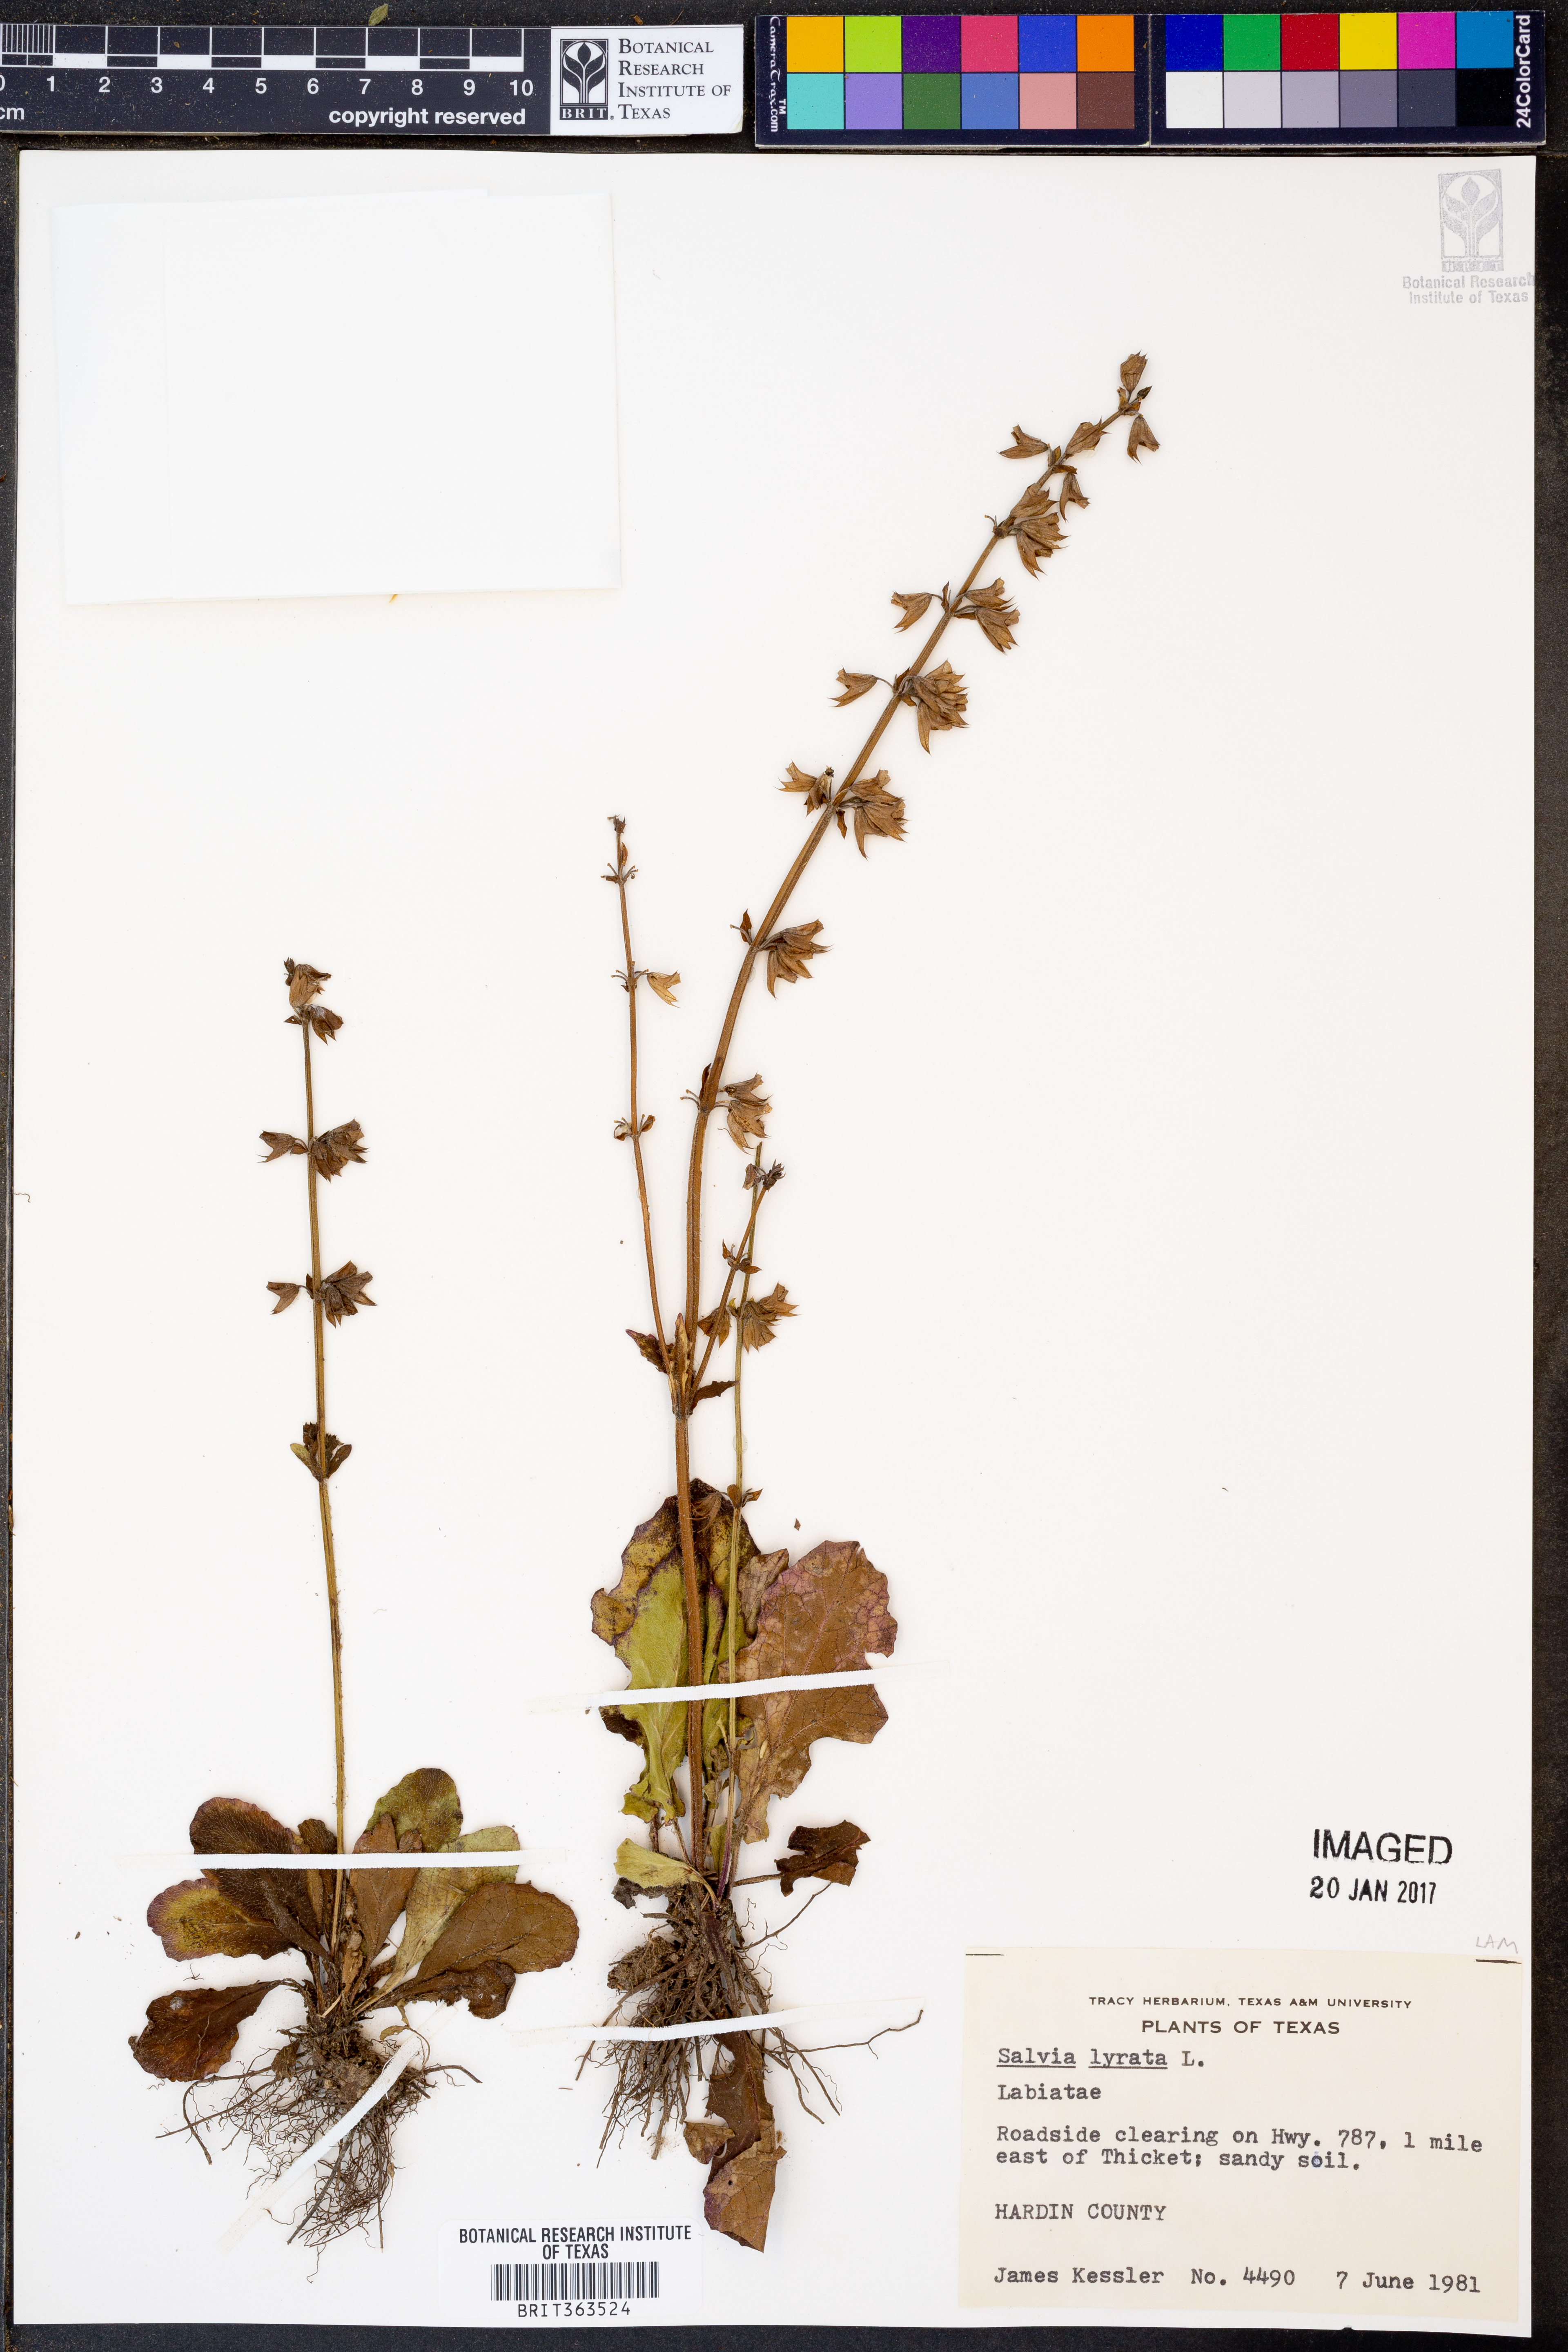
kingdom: Plantae
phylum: Tracheophyta
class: Magnoliopsida
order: Lamiales
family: Lamiaceae
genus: Salvia
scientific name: Salvia lyrata
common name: Cancerweed
